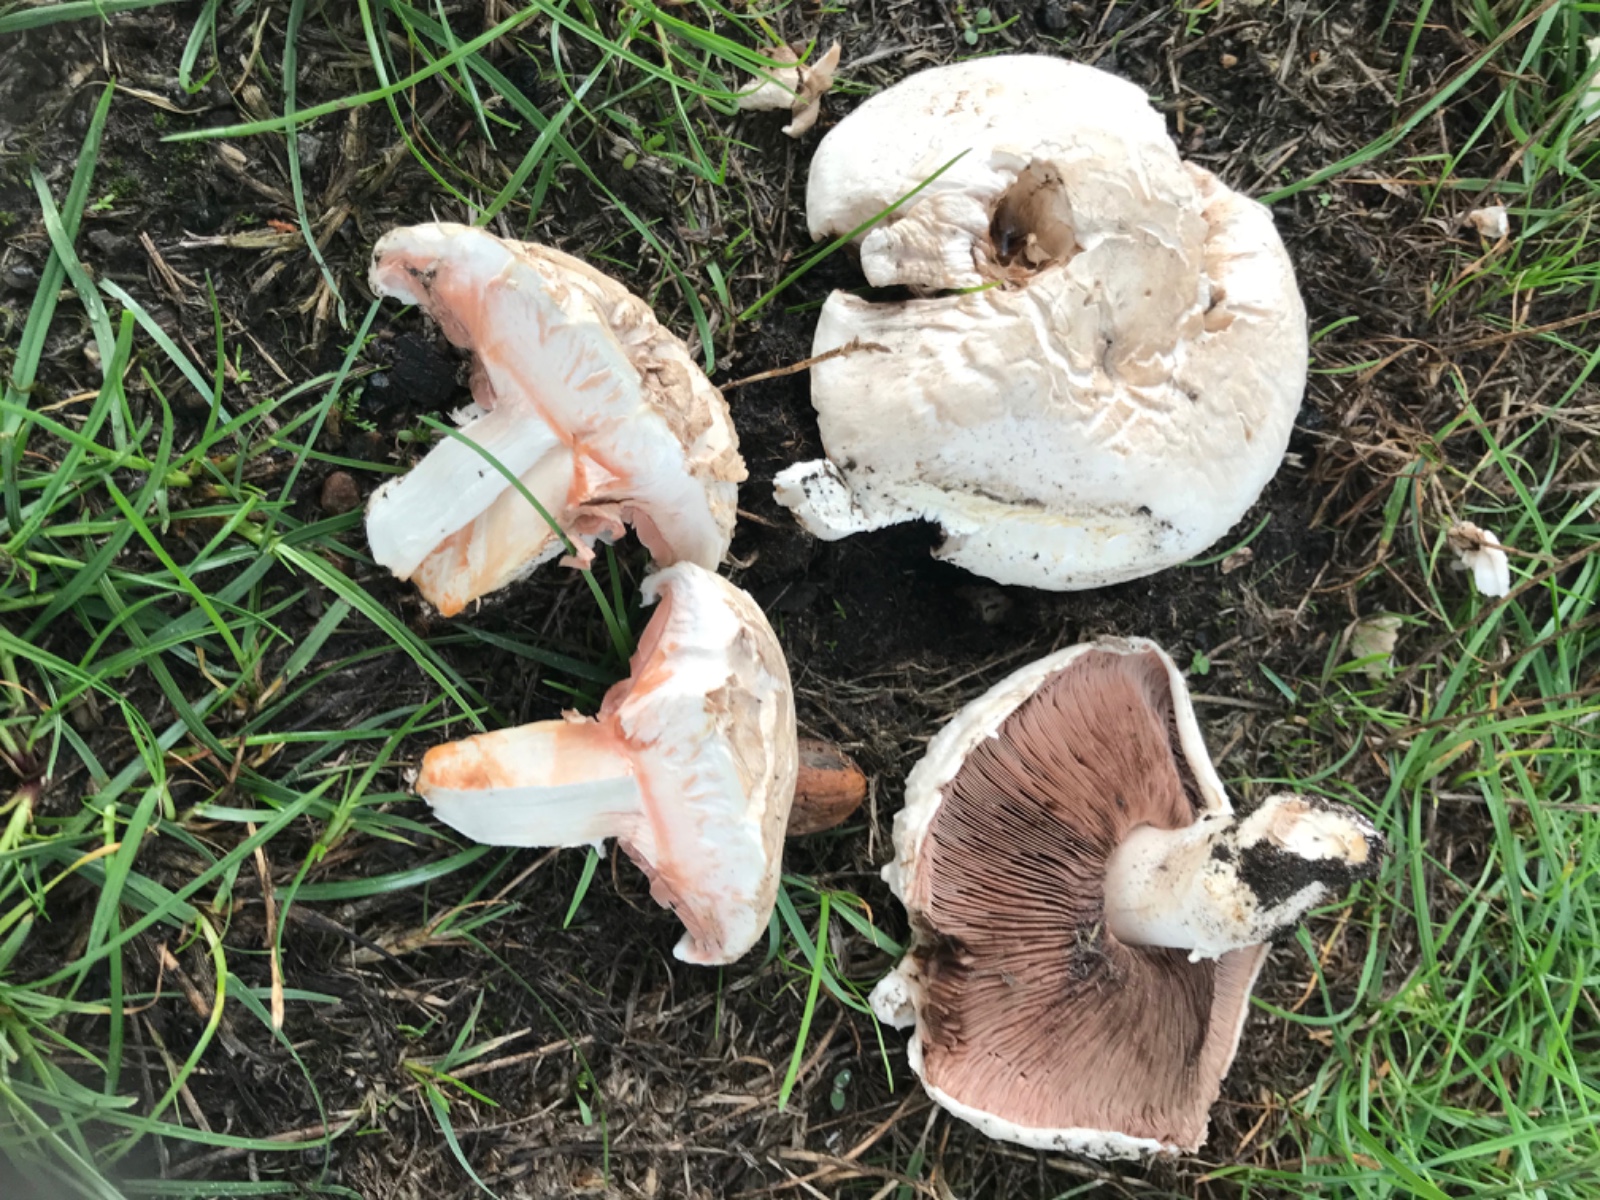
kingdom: Fungi
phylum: Basidiomycota
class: Agaricomycetes
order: Agaricales
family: Agaricaceae
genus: Agaricus
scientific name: Agaricus bernardii
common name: strandengs-champignon
